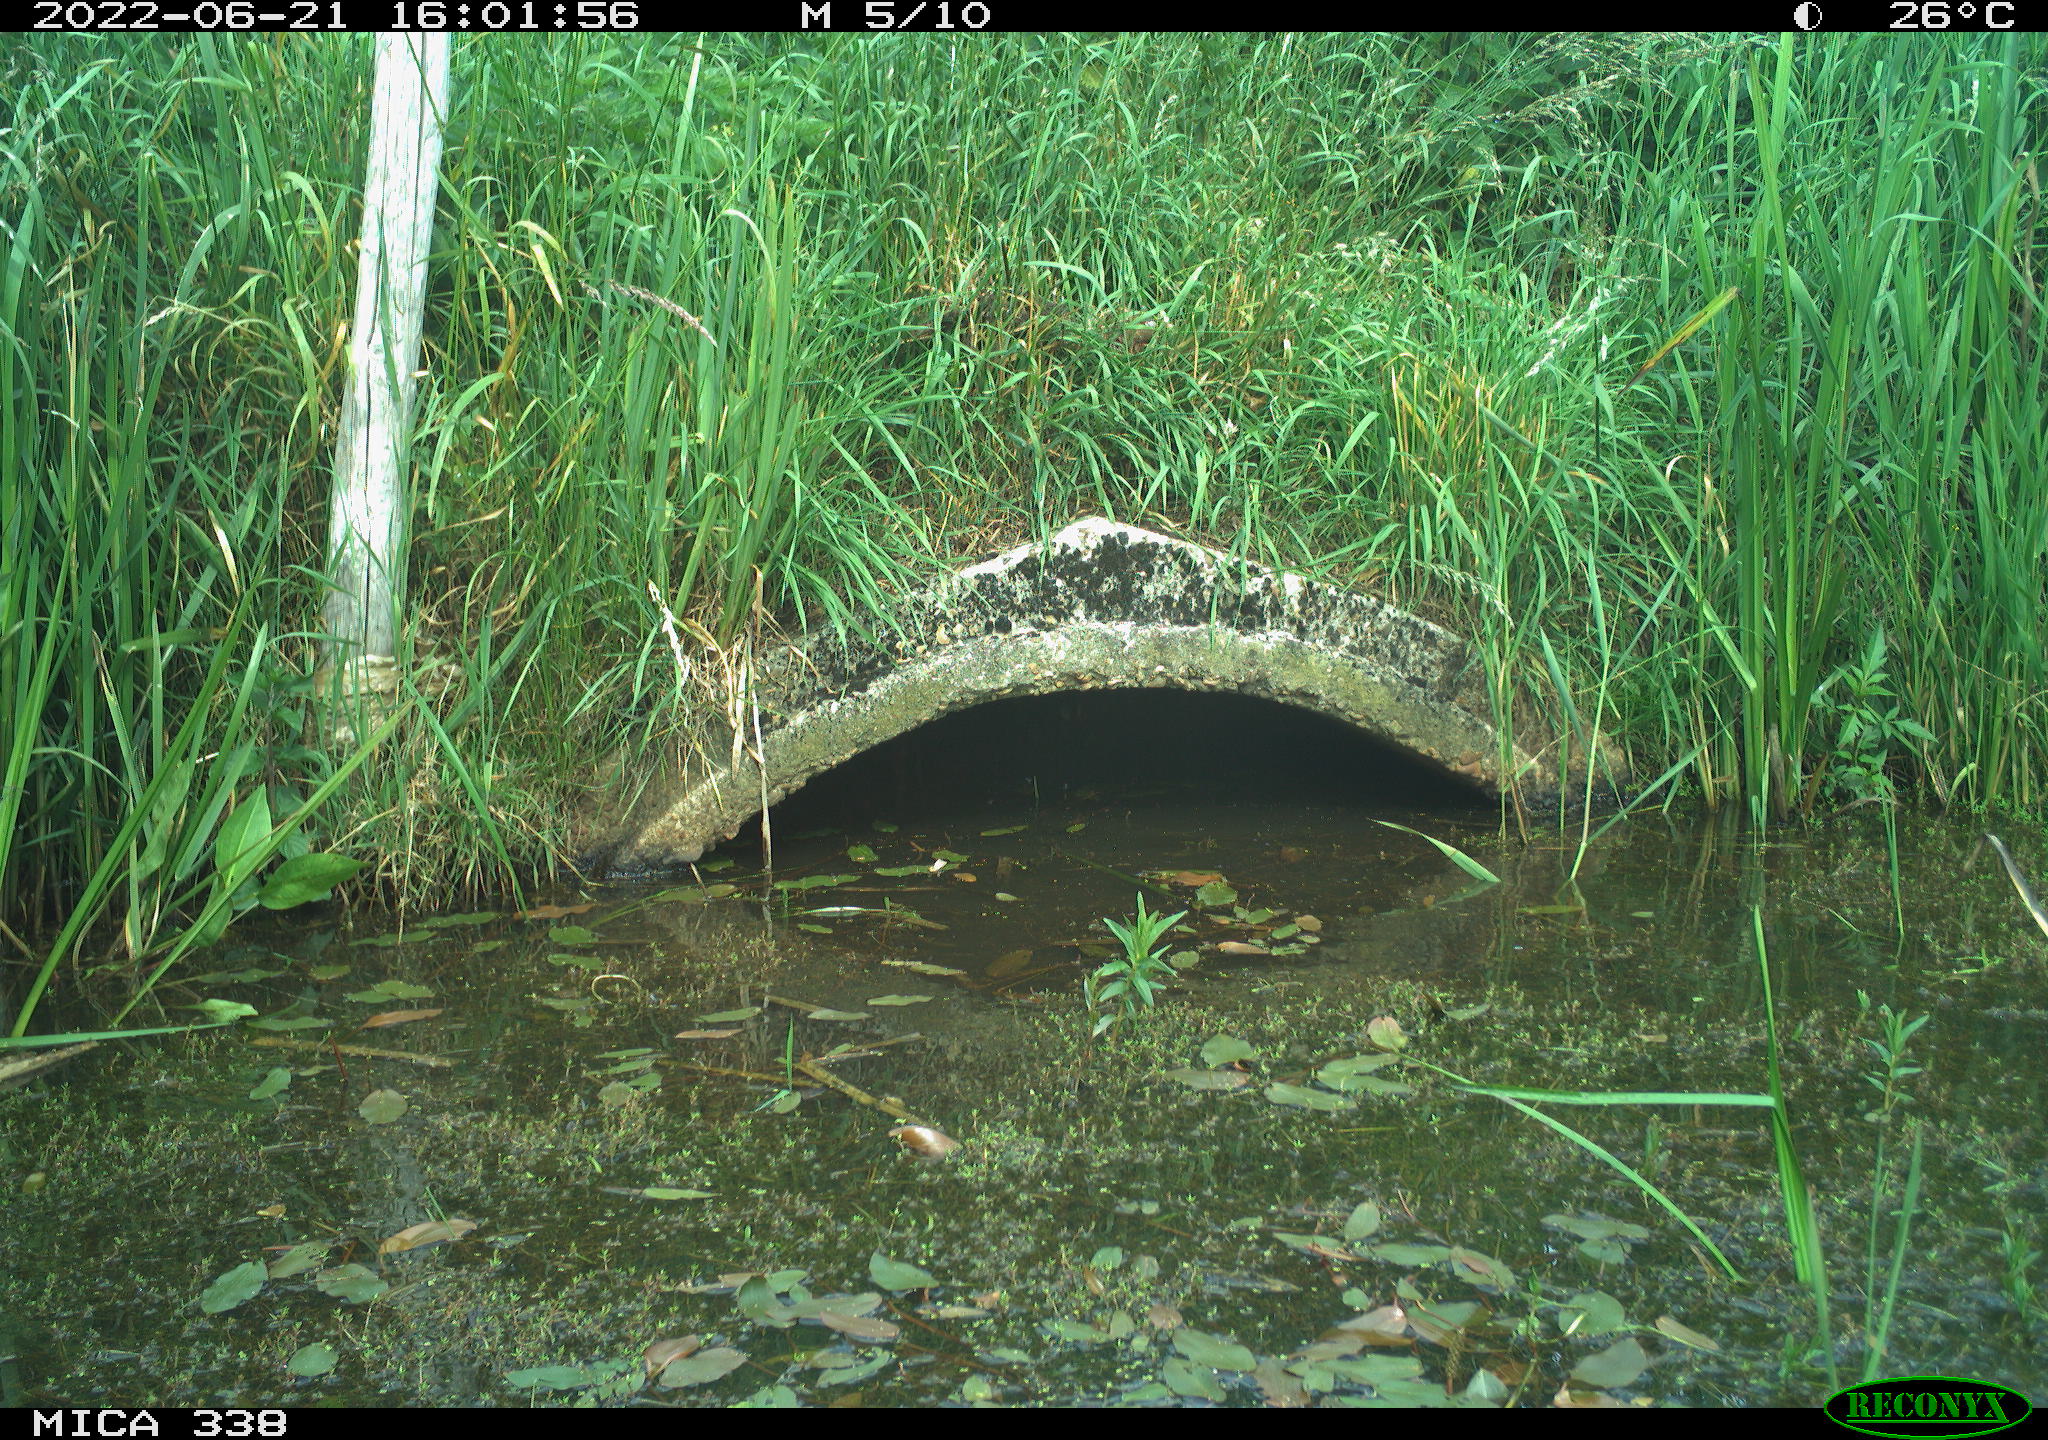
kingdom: Animalia
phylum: Chordata
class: Aves
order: Anseriformes
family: Anatidae
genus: Anas
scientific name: Anas platyrhynchos
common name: Mallard
